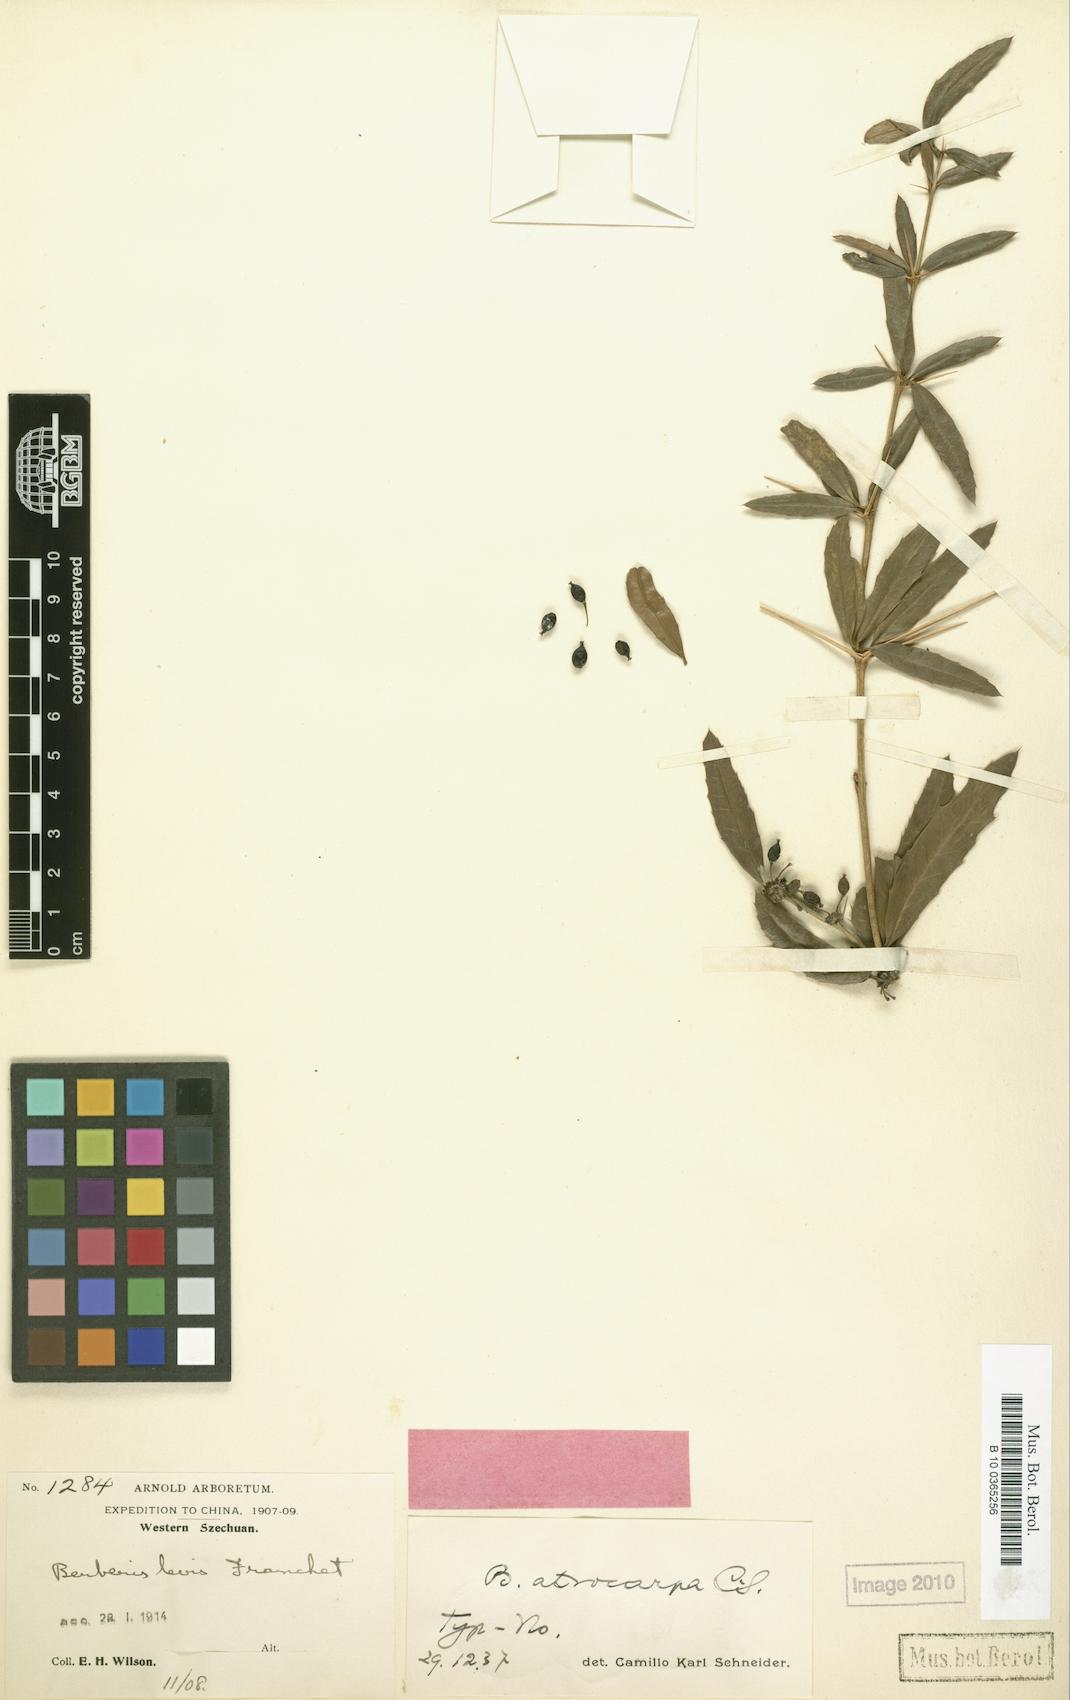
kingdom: Plantae
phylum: Tracheophyta
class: Magnoliopsida
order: Ranunculales
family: Berberidaceae
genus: Berberis
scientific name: Berberis atrocarpa
